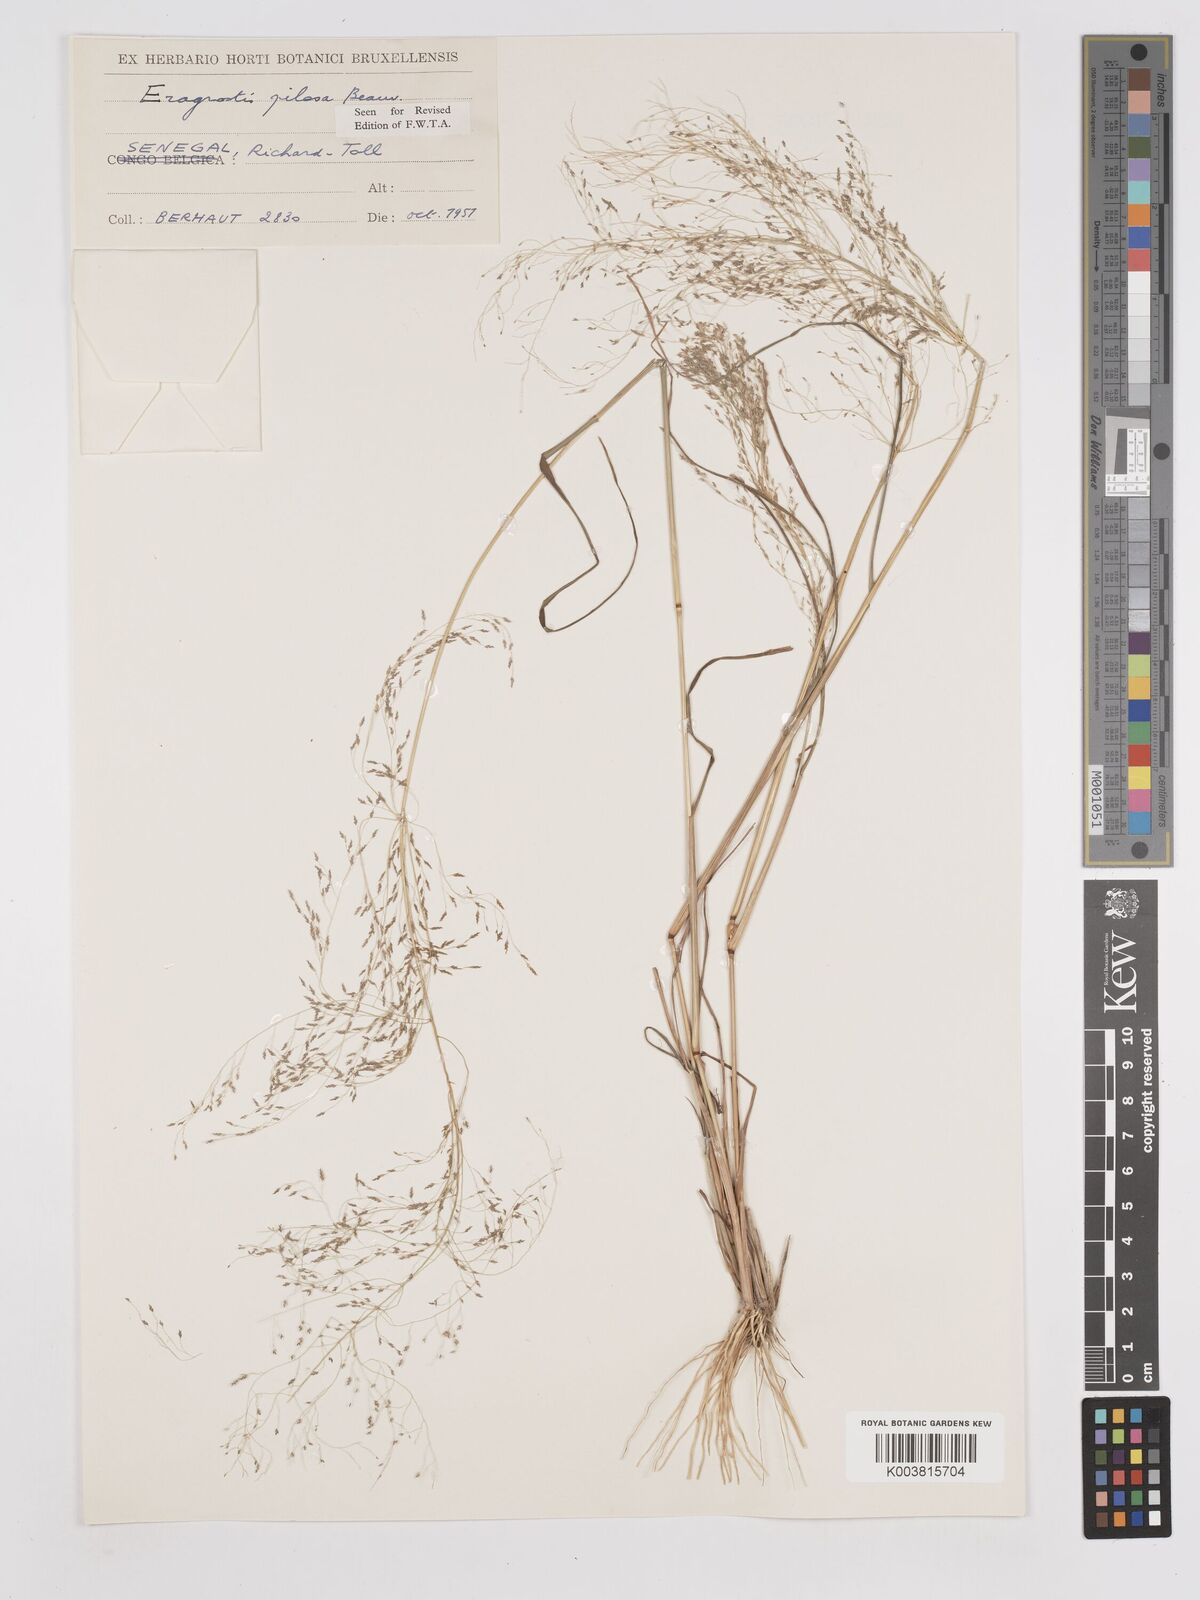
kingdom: Plantae
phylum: Tracheophyta
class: Liliopsida
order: Poales
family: Poaceae
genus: Eragrostis
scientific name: Eragrostis pilosa
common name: Indian lovegrass
